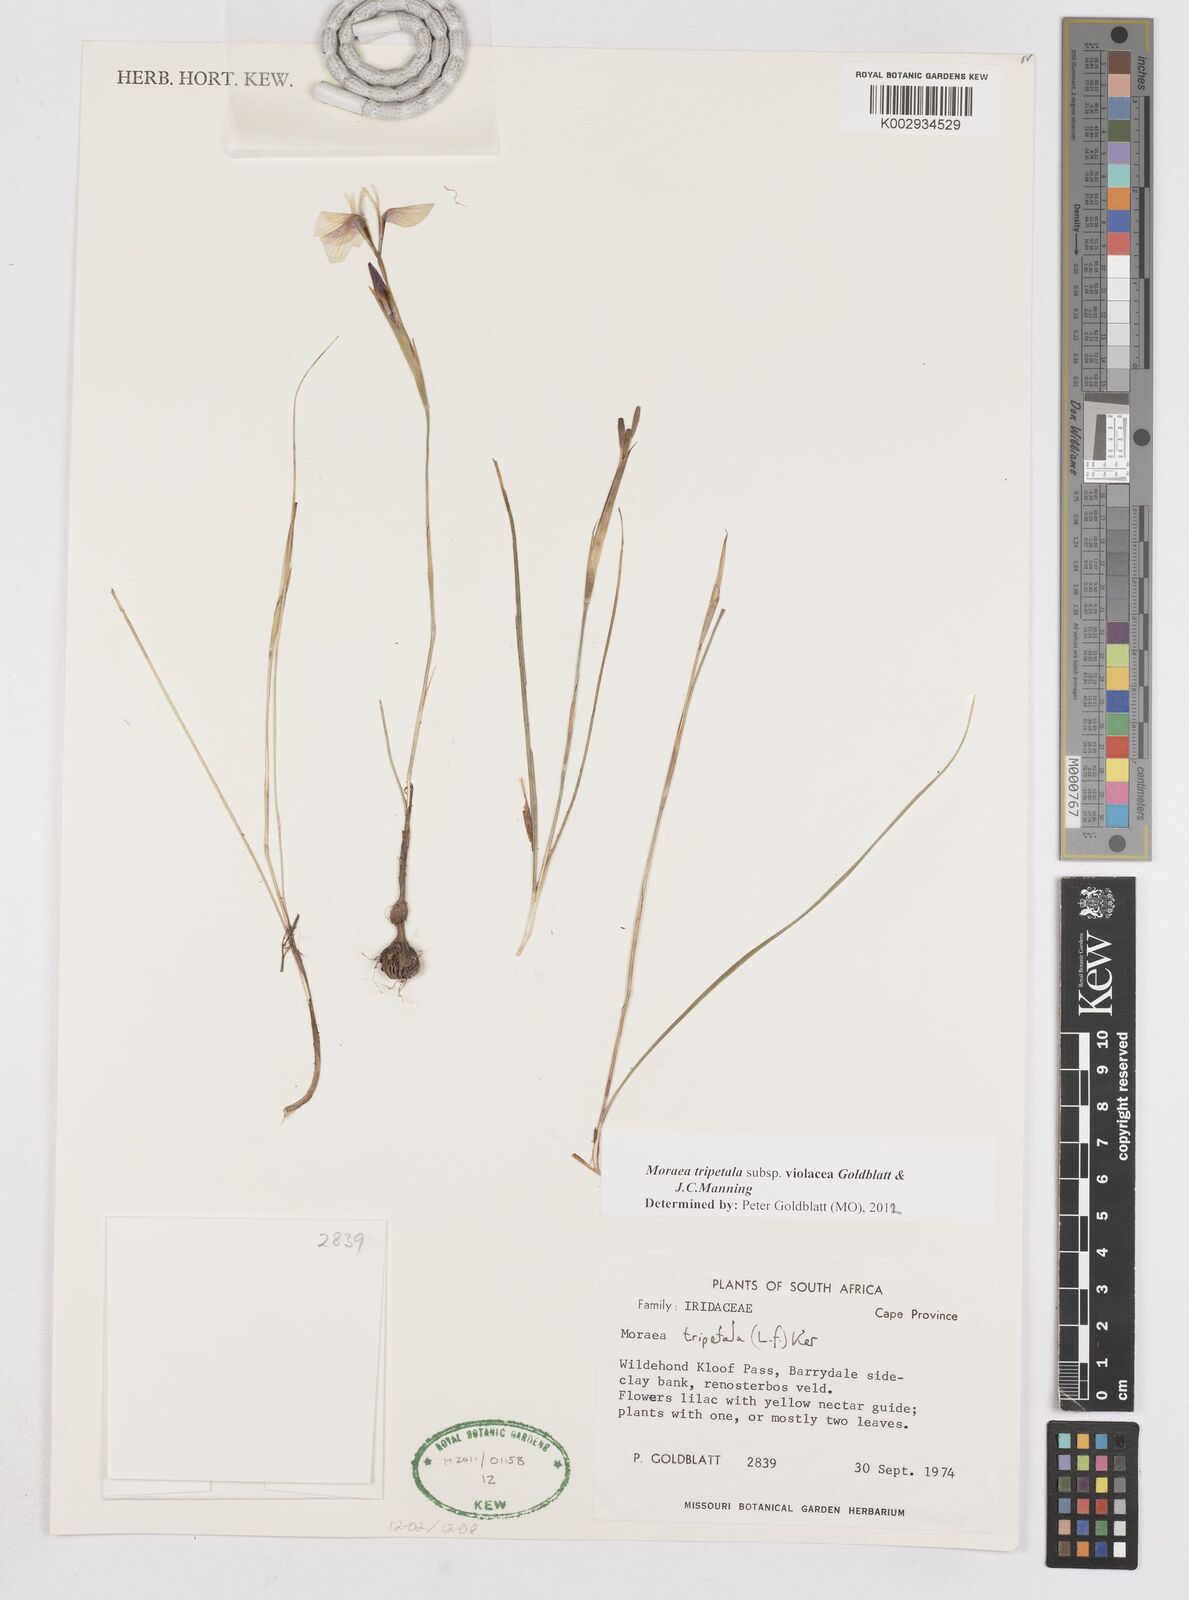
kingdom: Plantae
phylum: Tracheophyta
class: Liliopsida
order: Asparagales
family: Iridaceae
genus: Moraea
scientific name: Moraea tripetala
